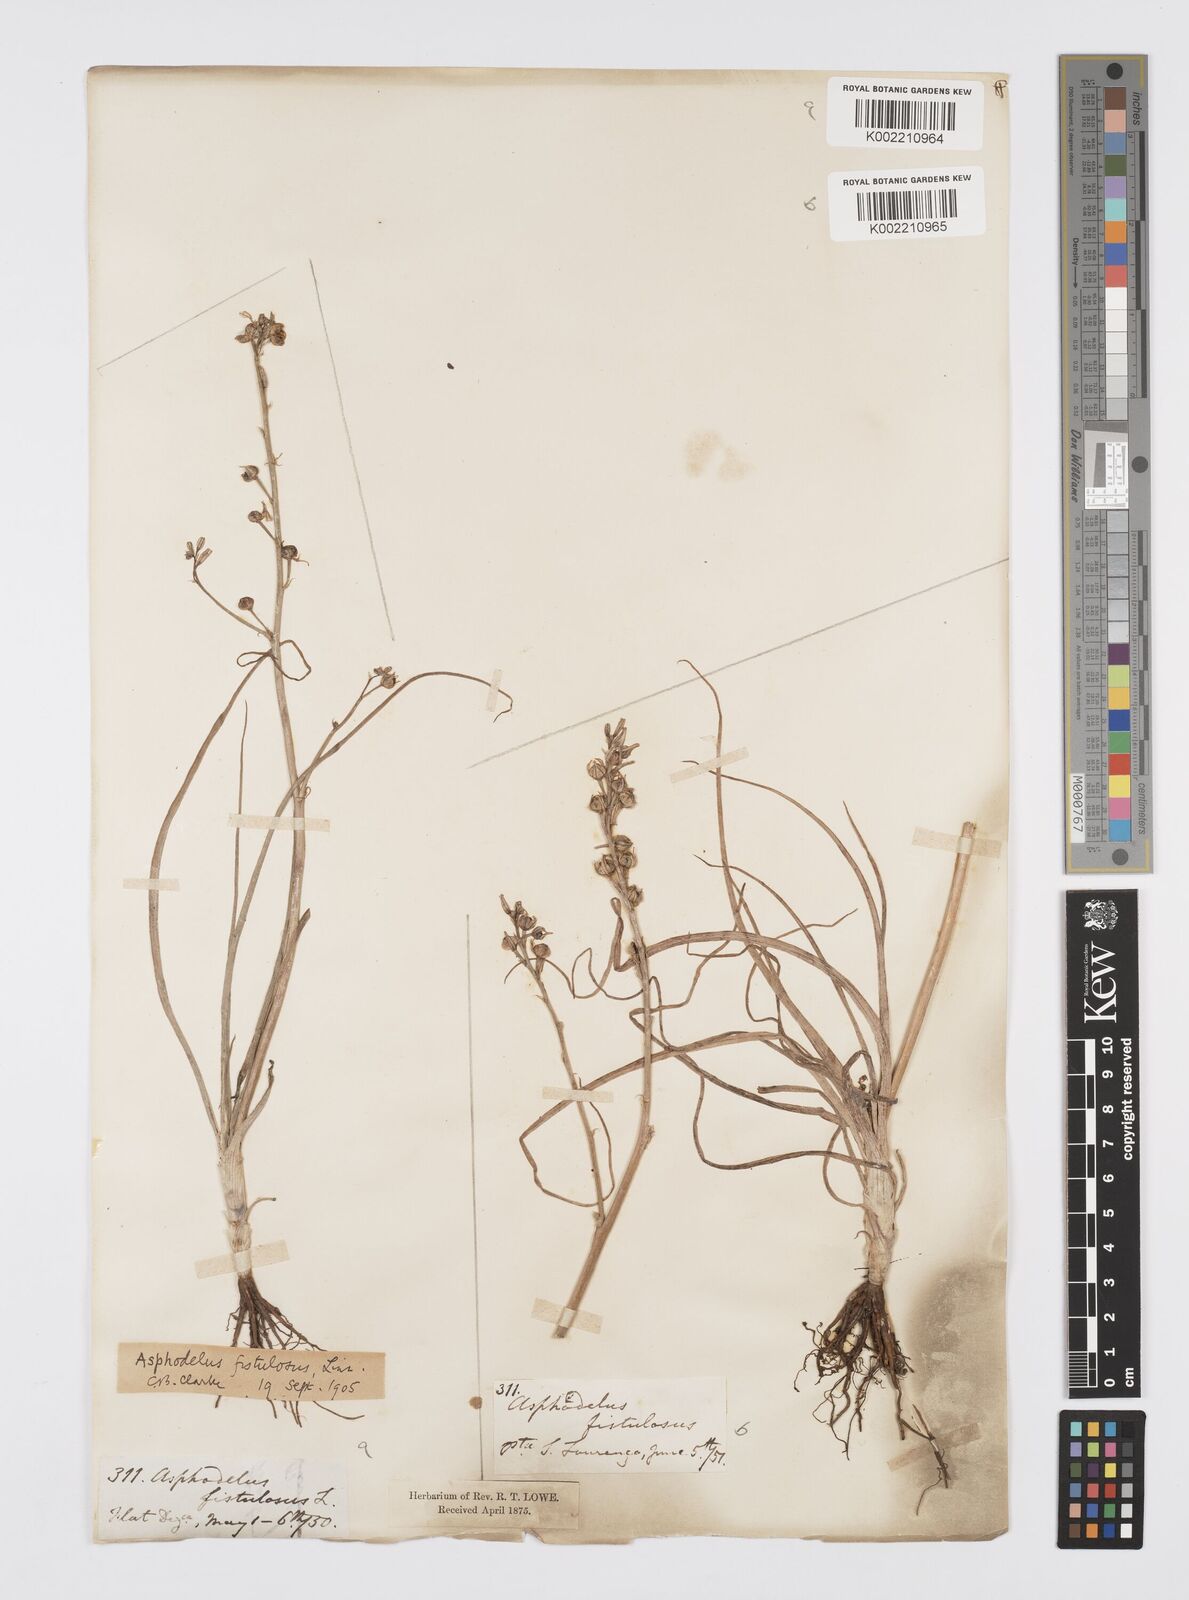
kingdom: Plantae
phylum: Tracheophyta
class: Liliopsida
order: Asparagales
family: Asphodelaceae
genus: Asphodelus
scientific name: Asphodelus fistulosus
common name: Onionweed
